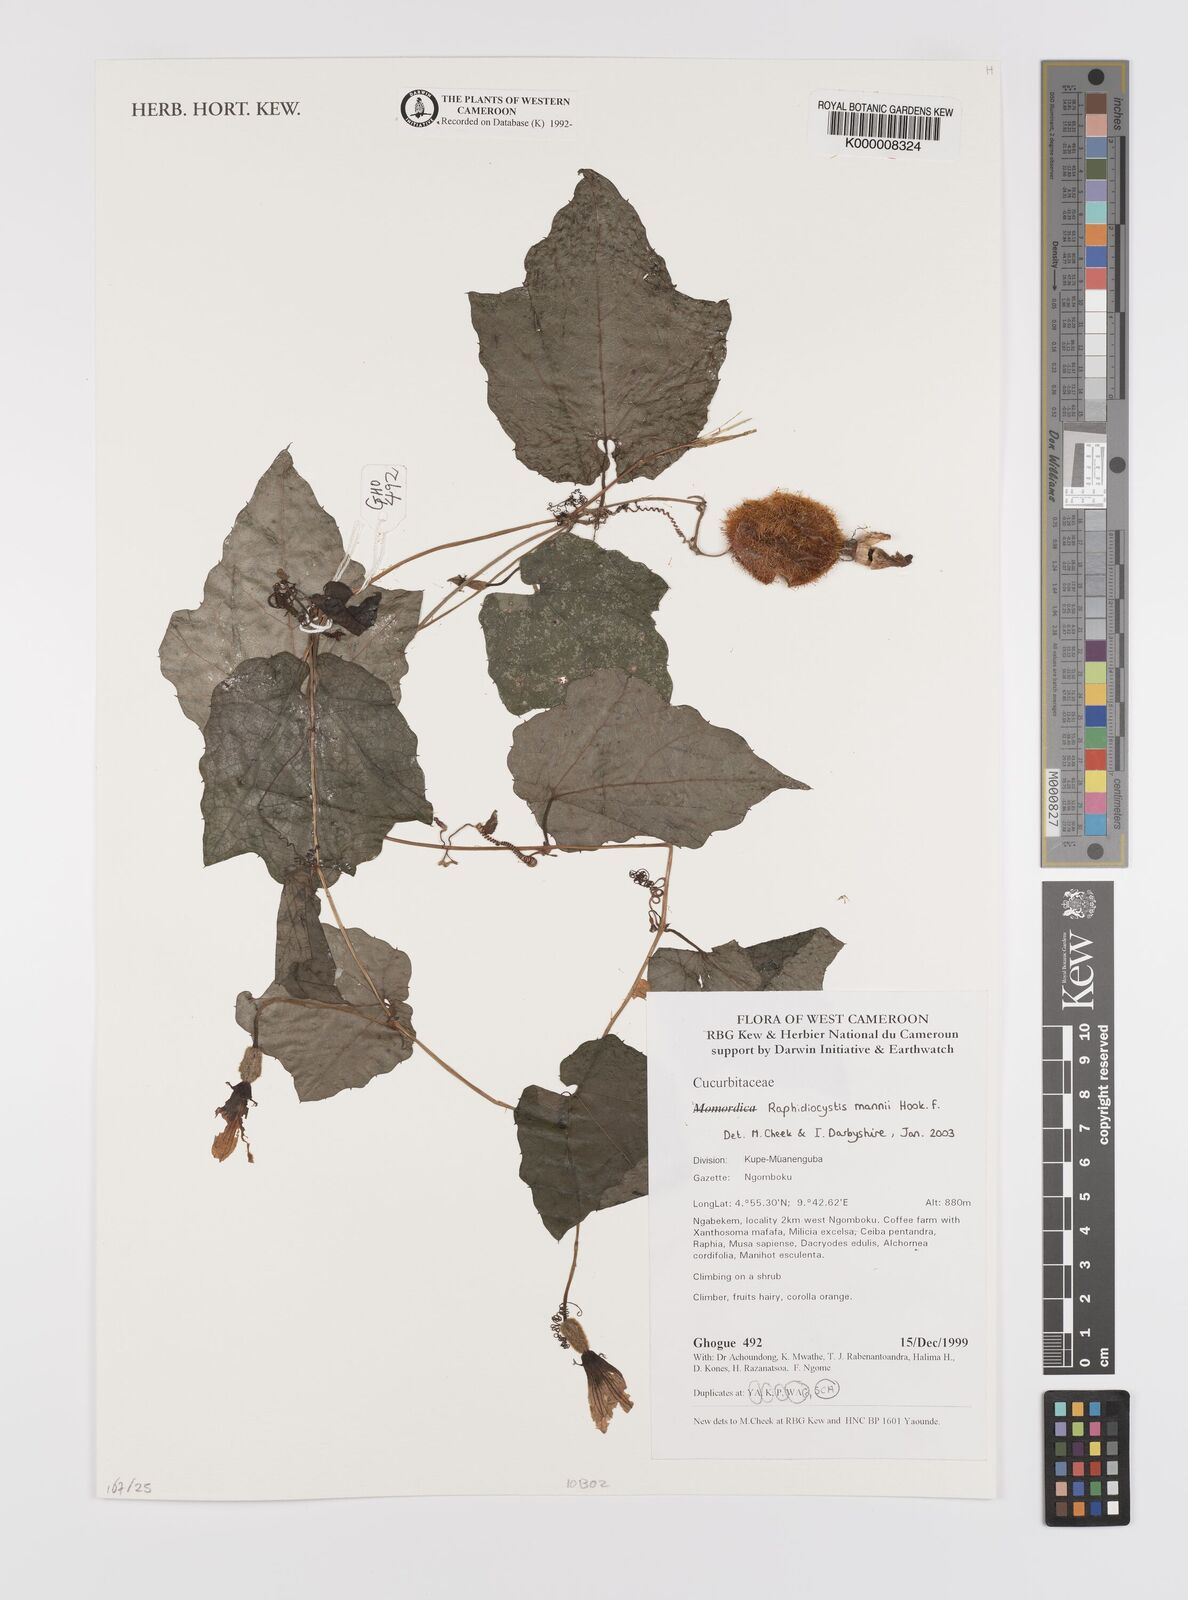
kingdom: Plantae
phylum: Tracheophyta
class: Magnoliopsida
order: Cucurbitales
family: Cucurbitaceae
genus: Raphidiocystis
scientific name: Raphidiocystis mannii
